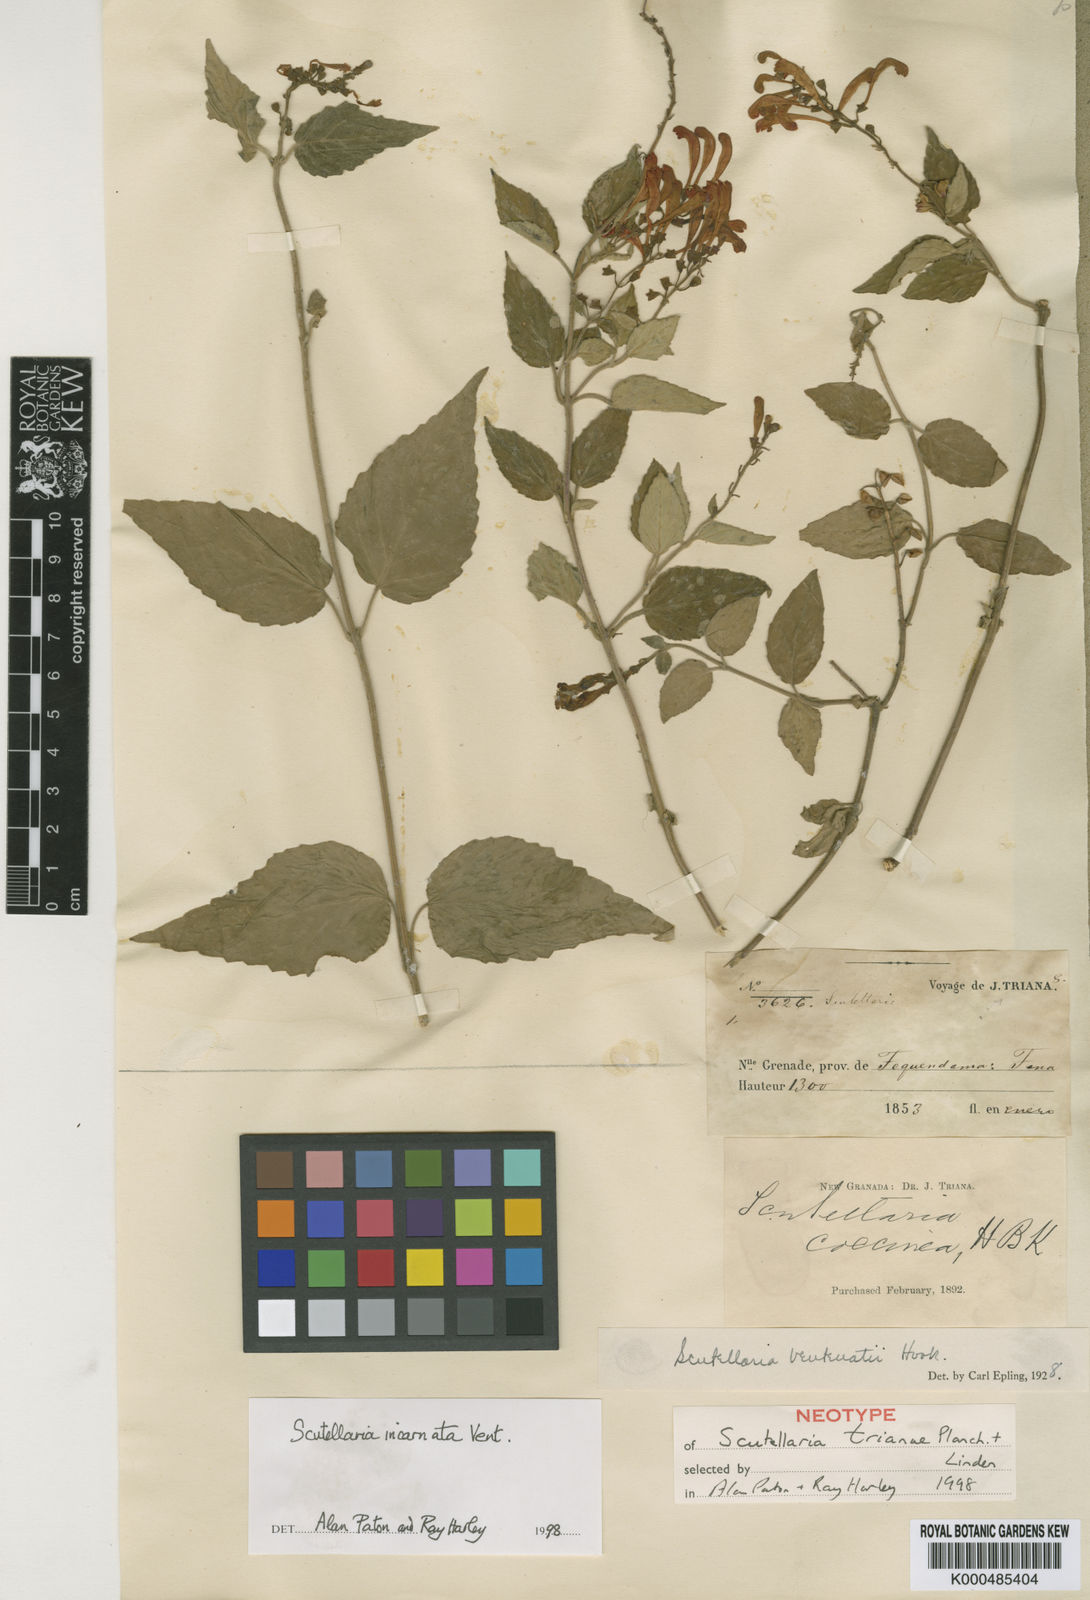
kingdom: Plantae
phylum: Tracheophyta
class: Magnoliopsida
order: Lamiales
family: Lamiaceae
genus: Scutellaria
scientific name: Scutellaria incarnata
